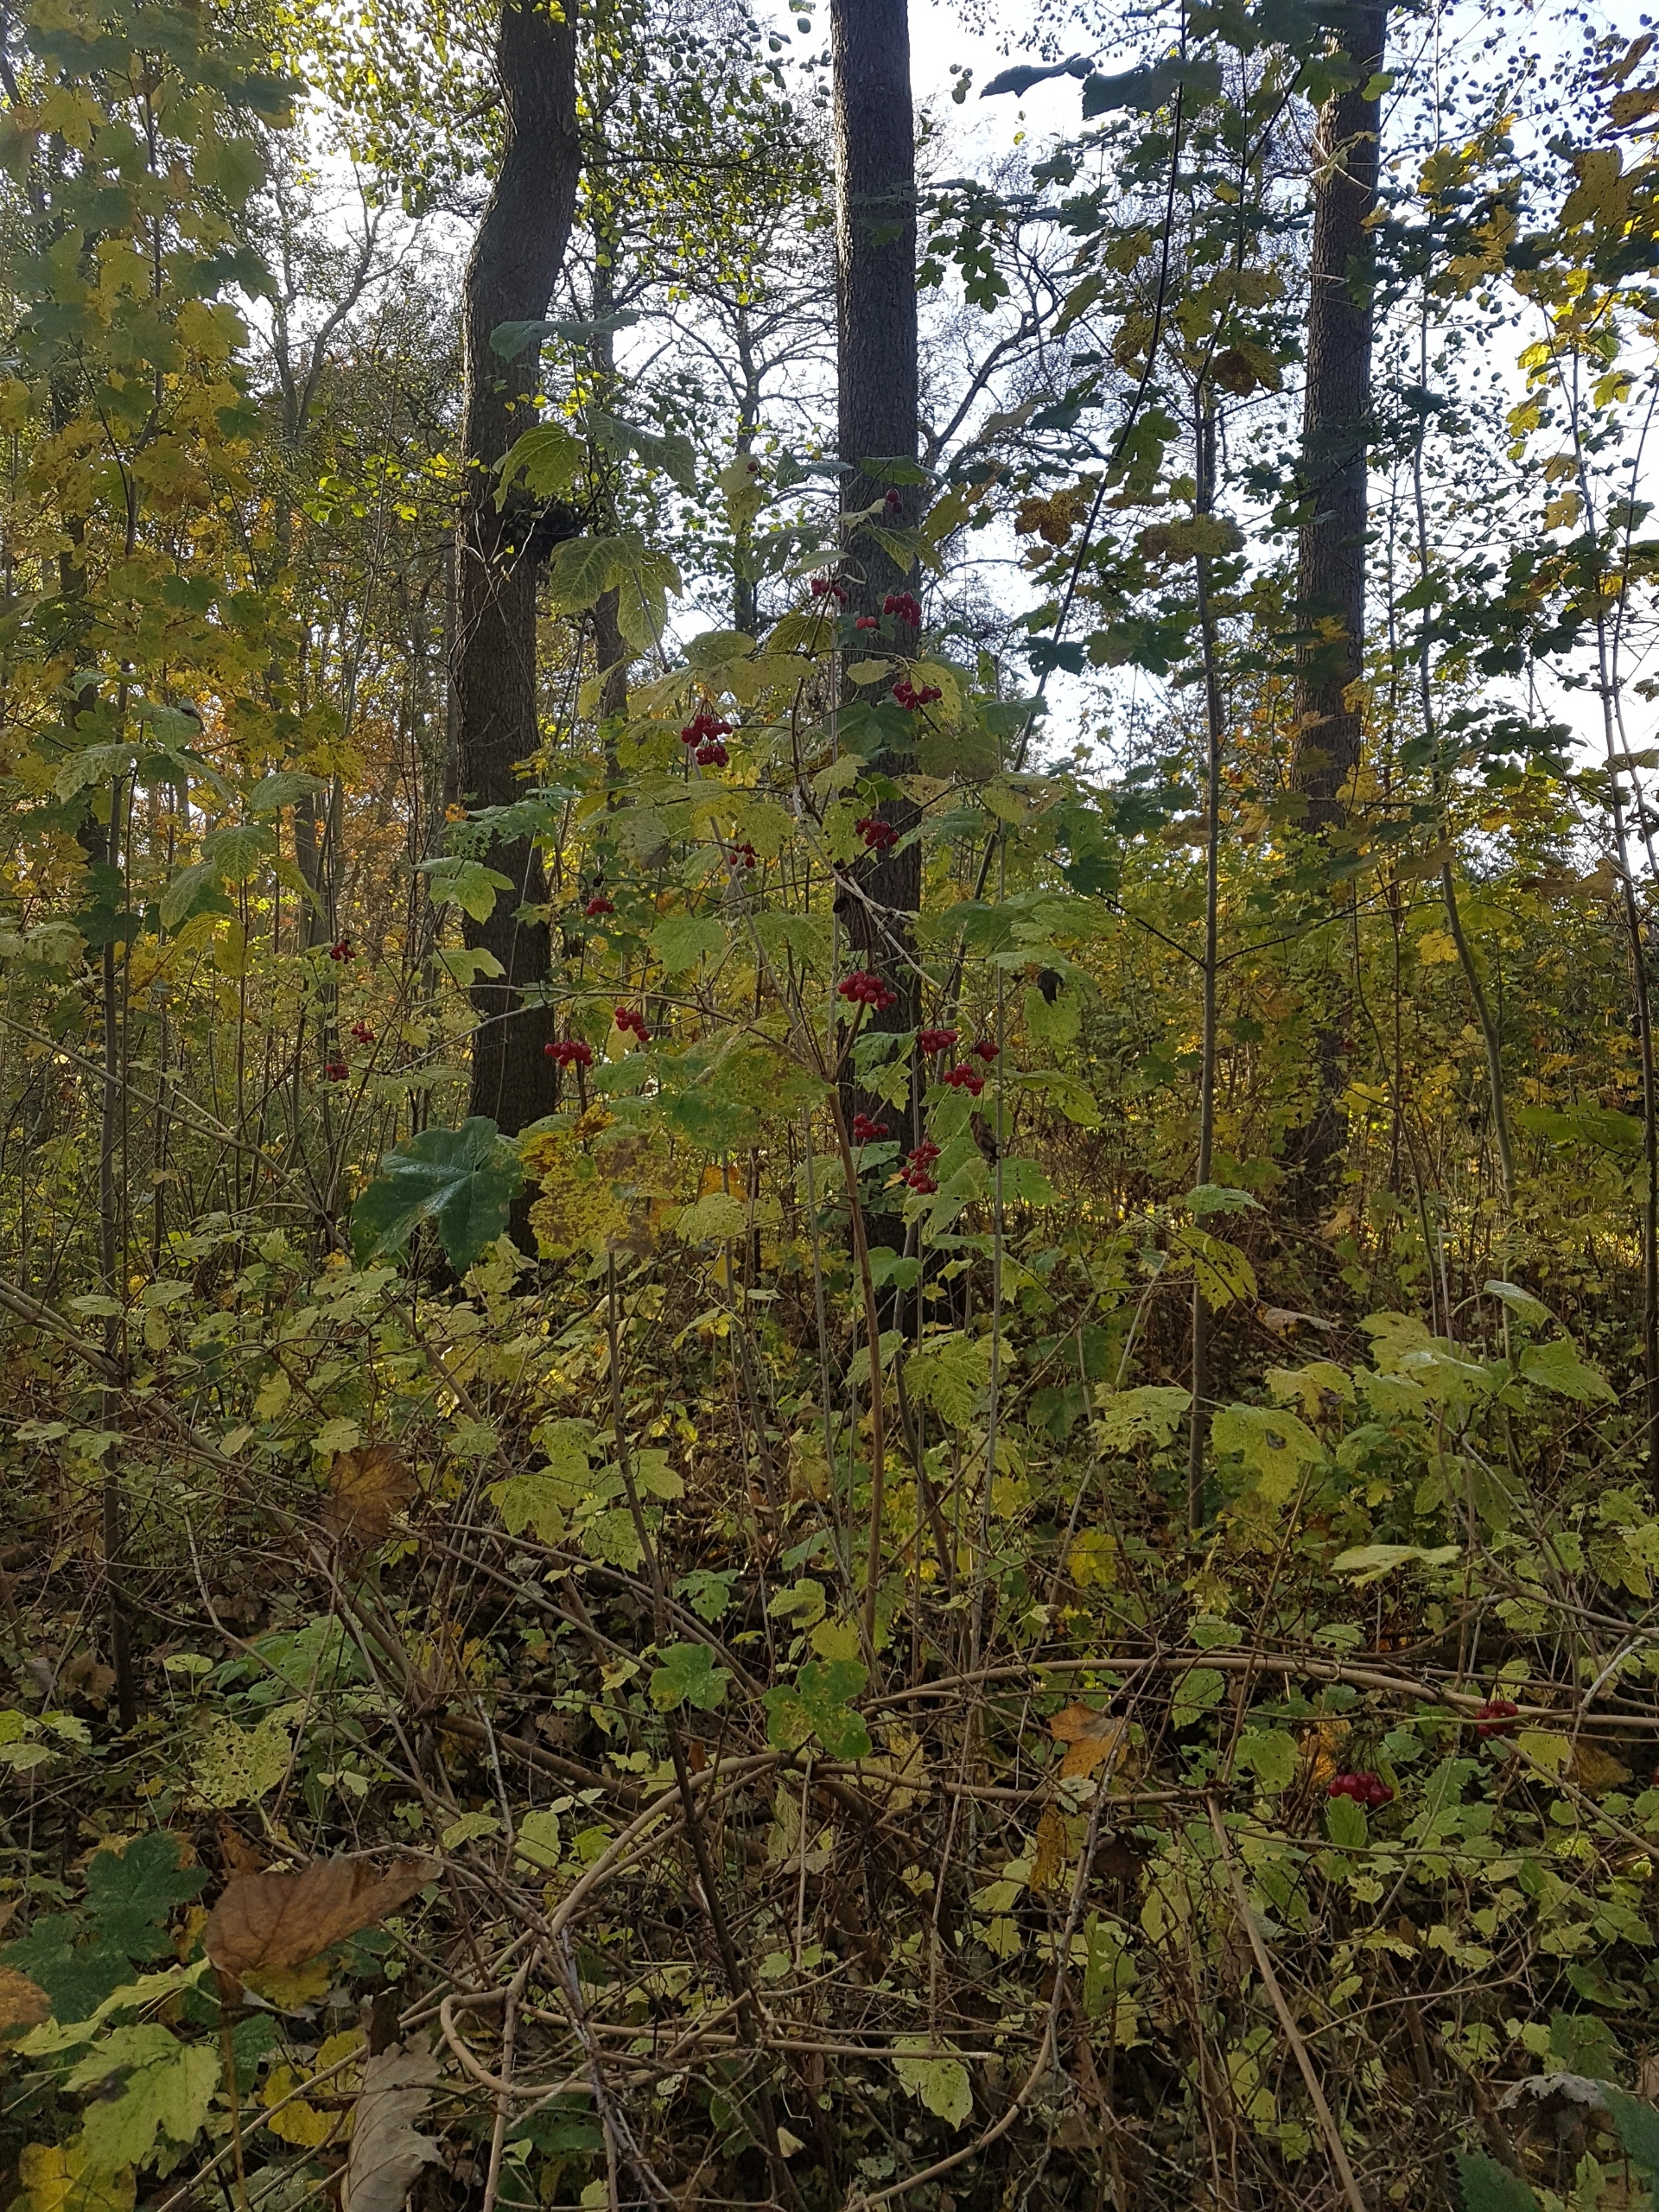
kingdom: Plantae
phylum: Tracheophyta
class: Magnoliopsida
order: Dipsacales
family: Viburnaceae
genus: Viburnum
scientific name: Viburnum opulus
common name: Kvalkved
